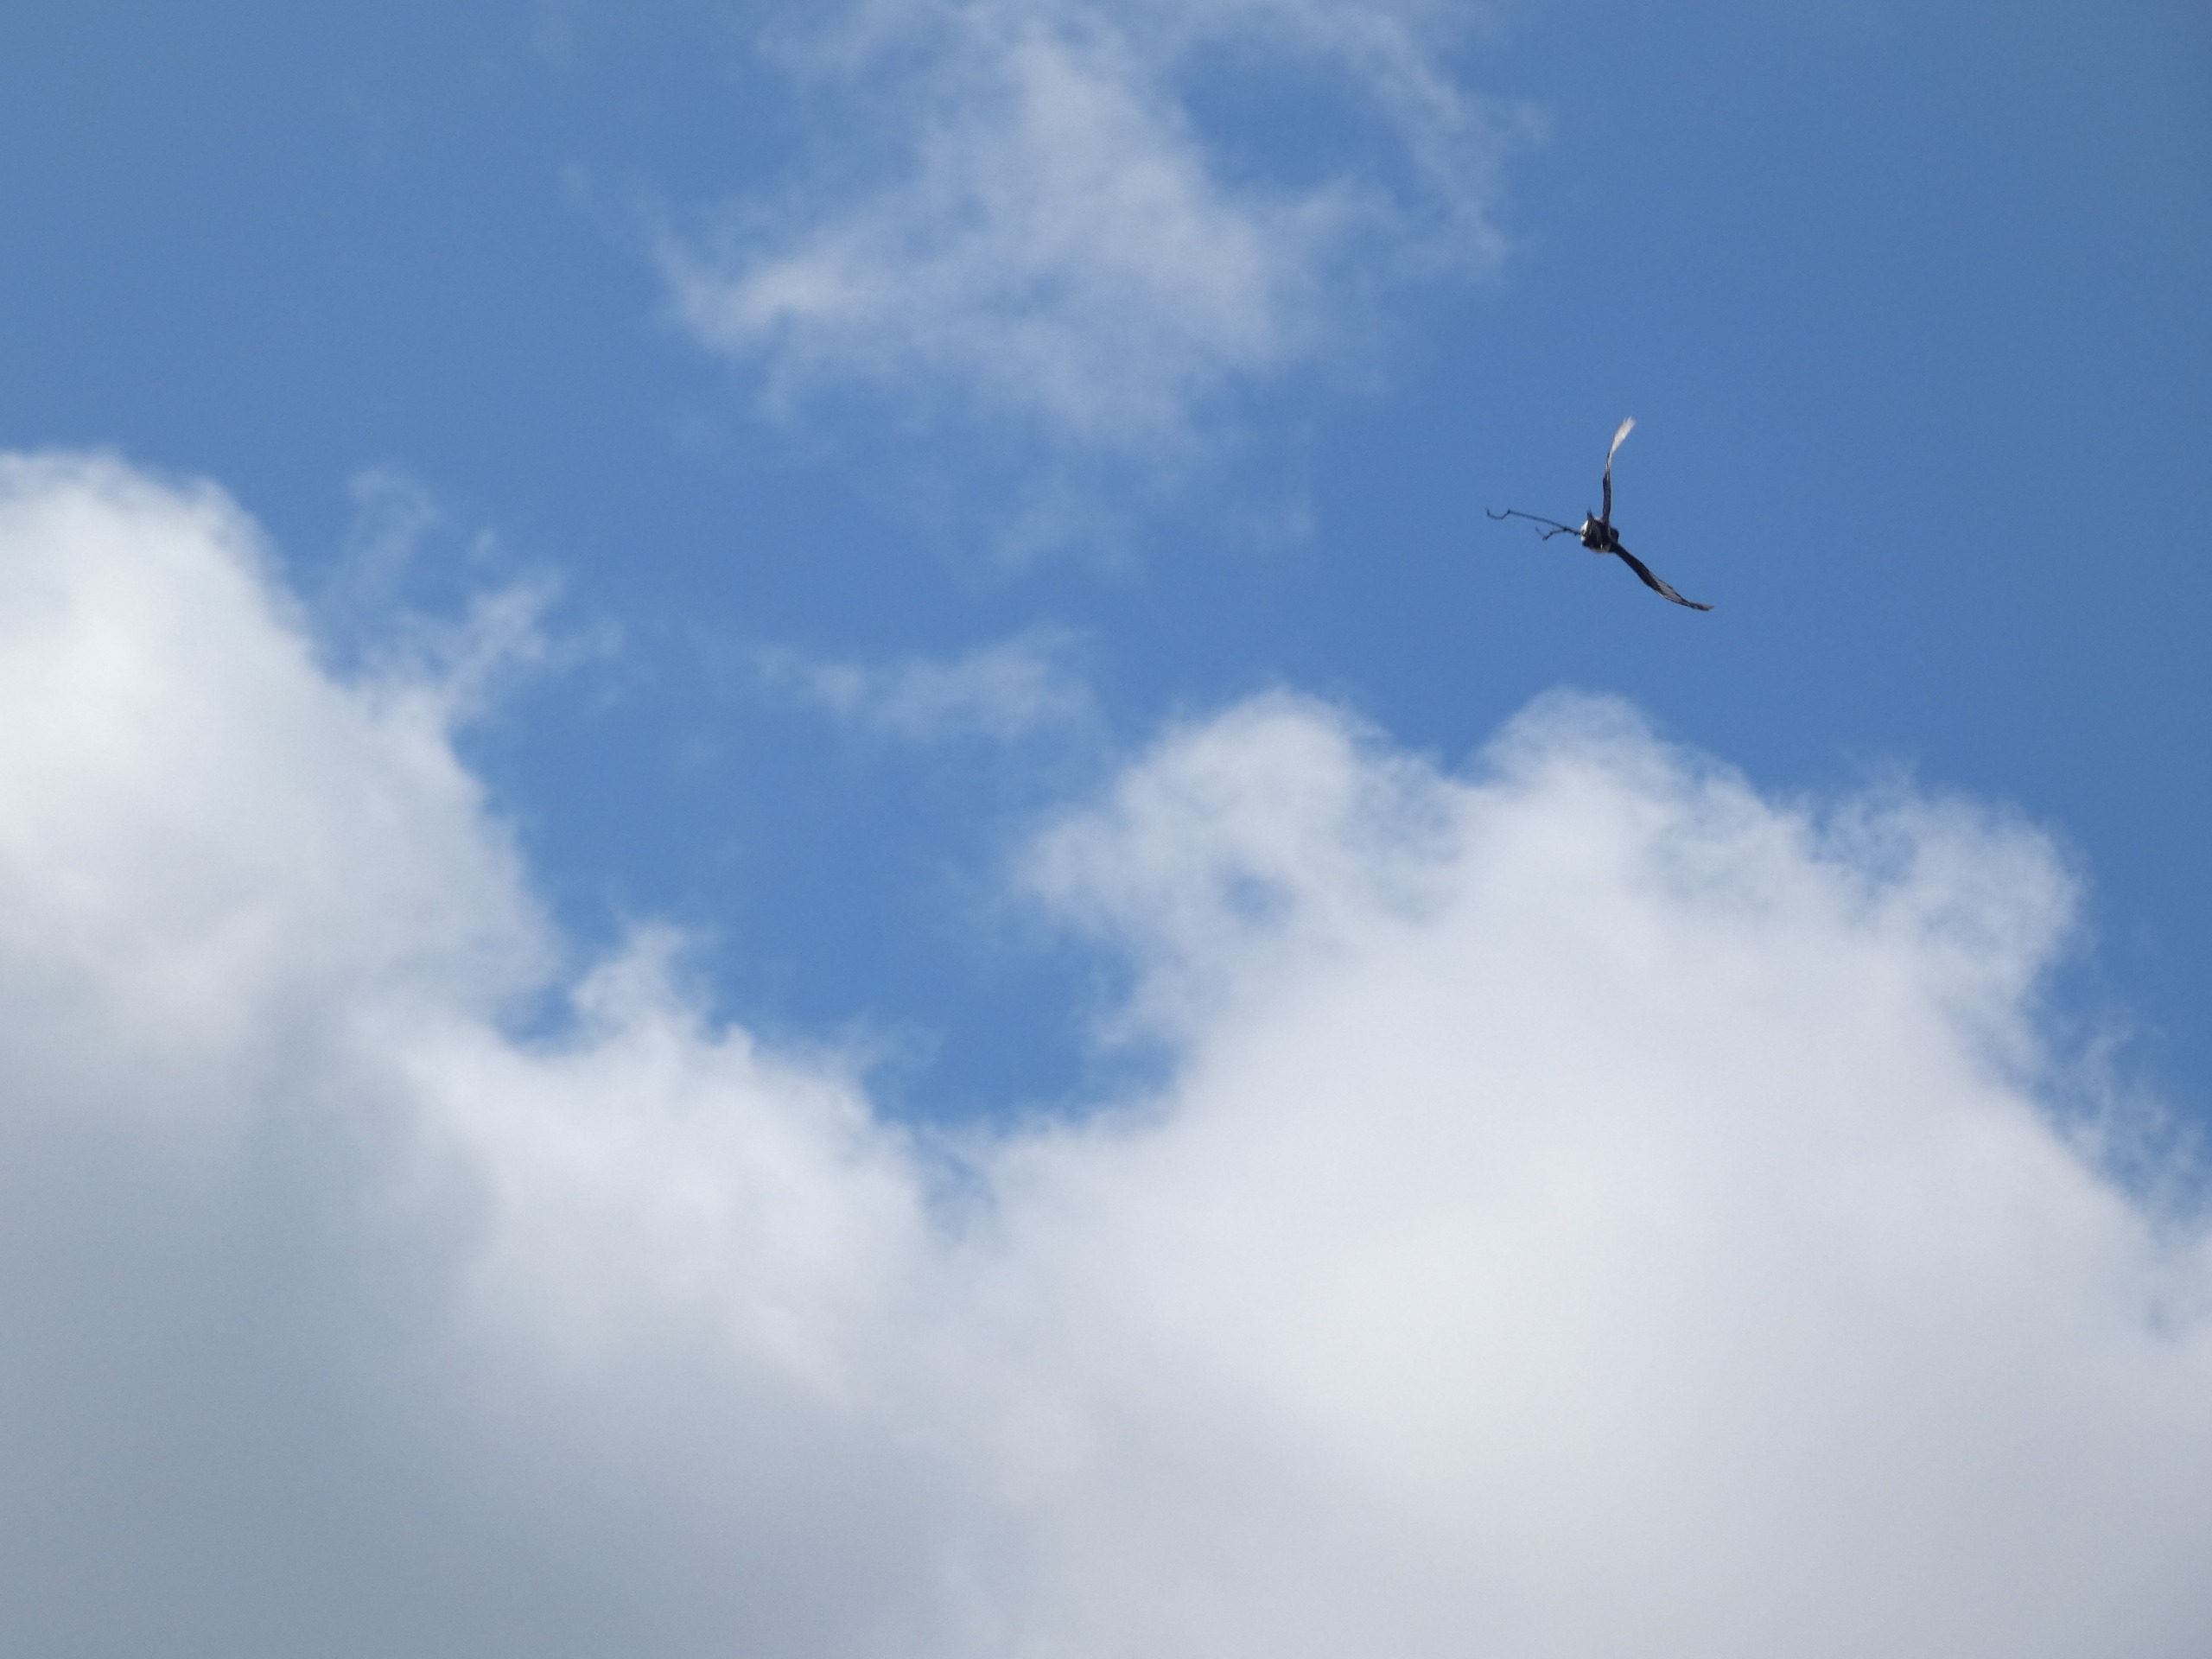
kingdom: Animalia
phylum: Chordata
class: Aves
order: Passeriformes
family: Corvidae
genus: Pica
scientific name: Pica pica
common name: Husskade
